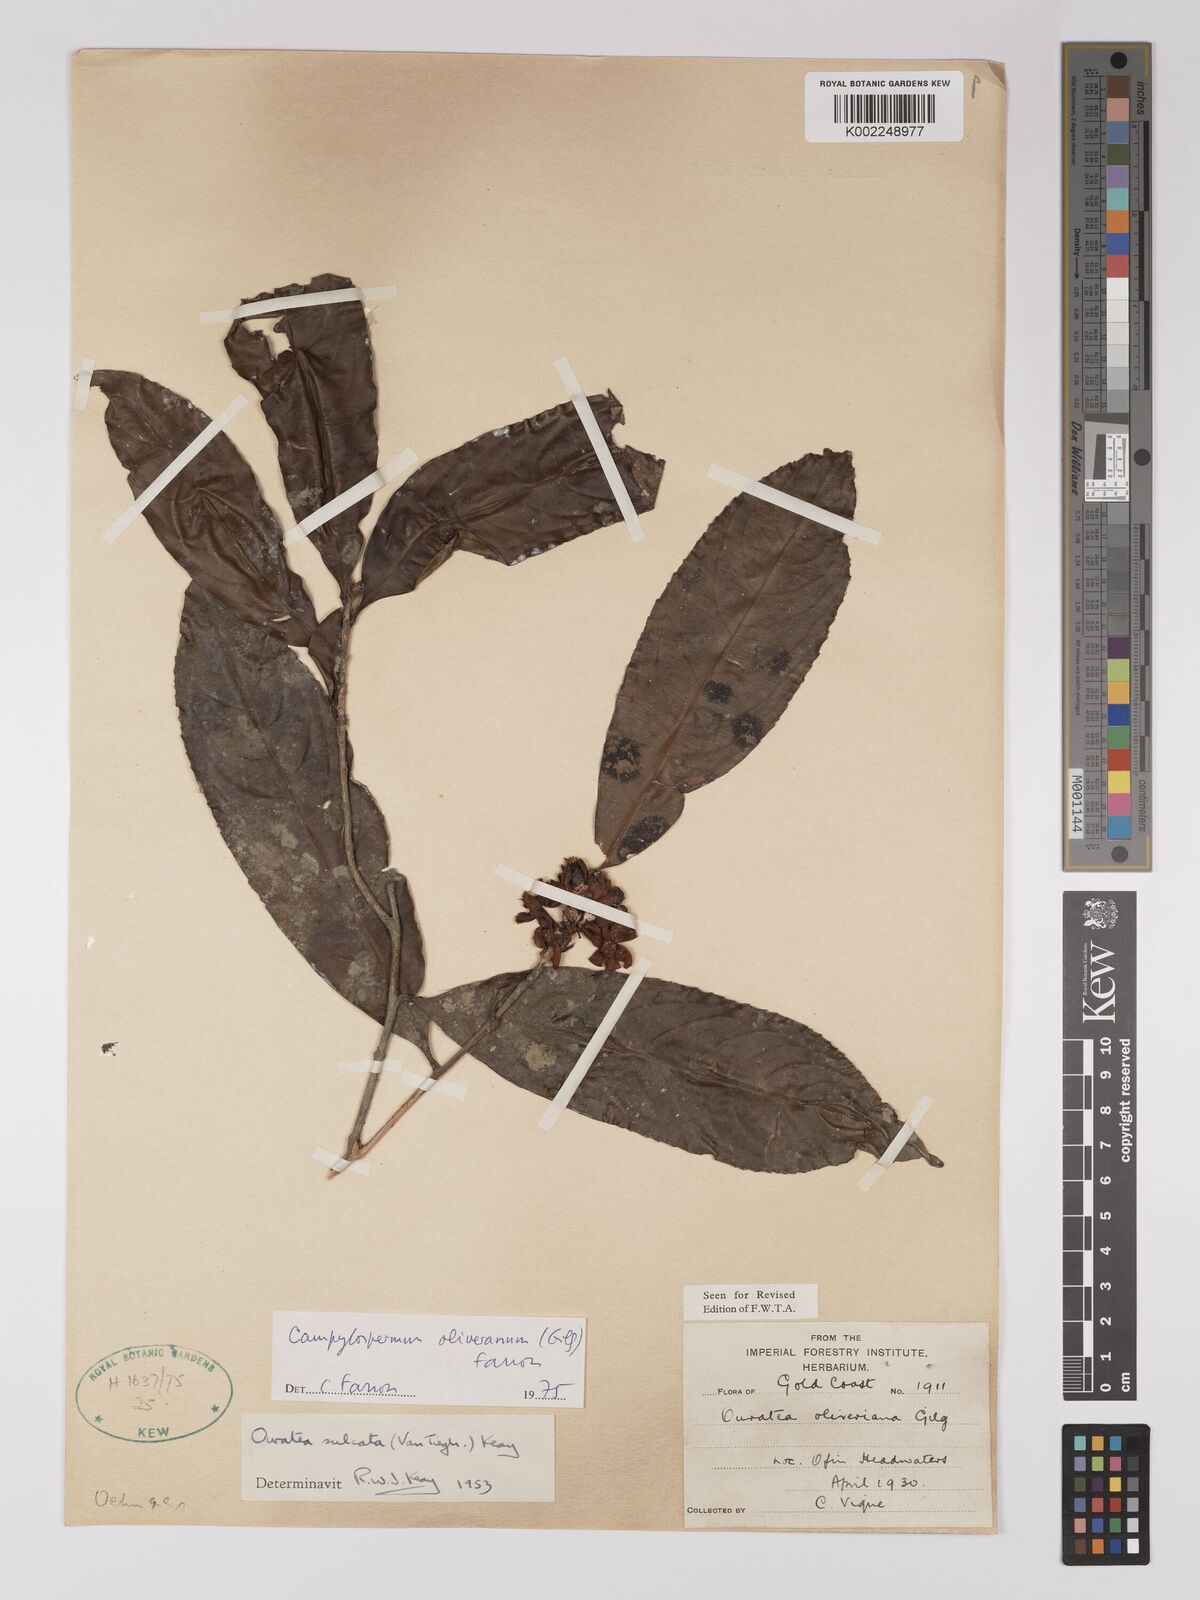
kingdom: Plantae
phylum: Tracheophyta
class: Magnoliopsida
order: Malpighiales
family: Ochnaceae
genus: Campylospermum
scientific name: Campylospermum oliverianum
